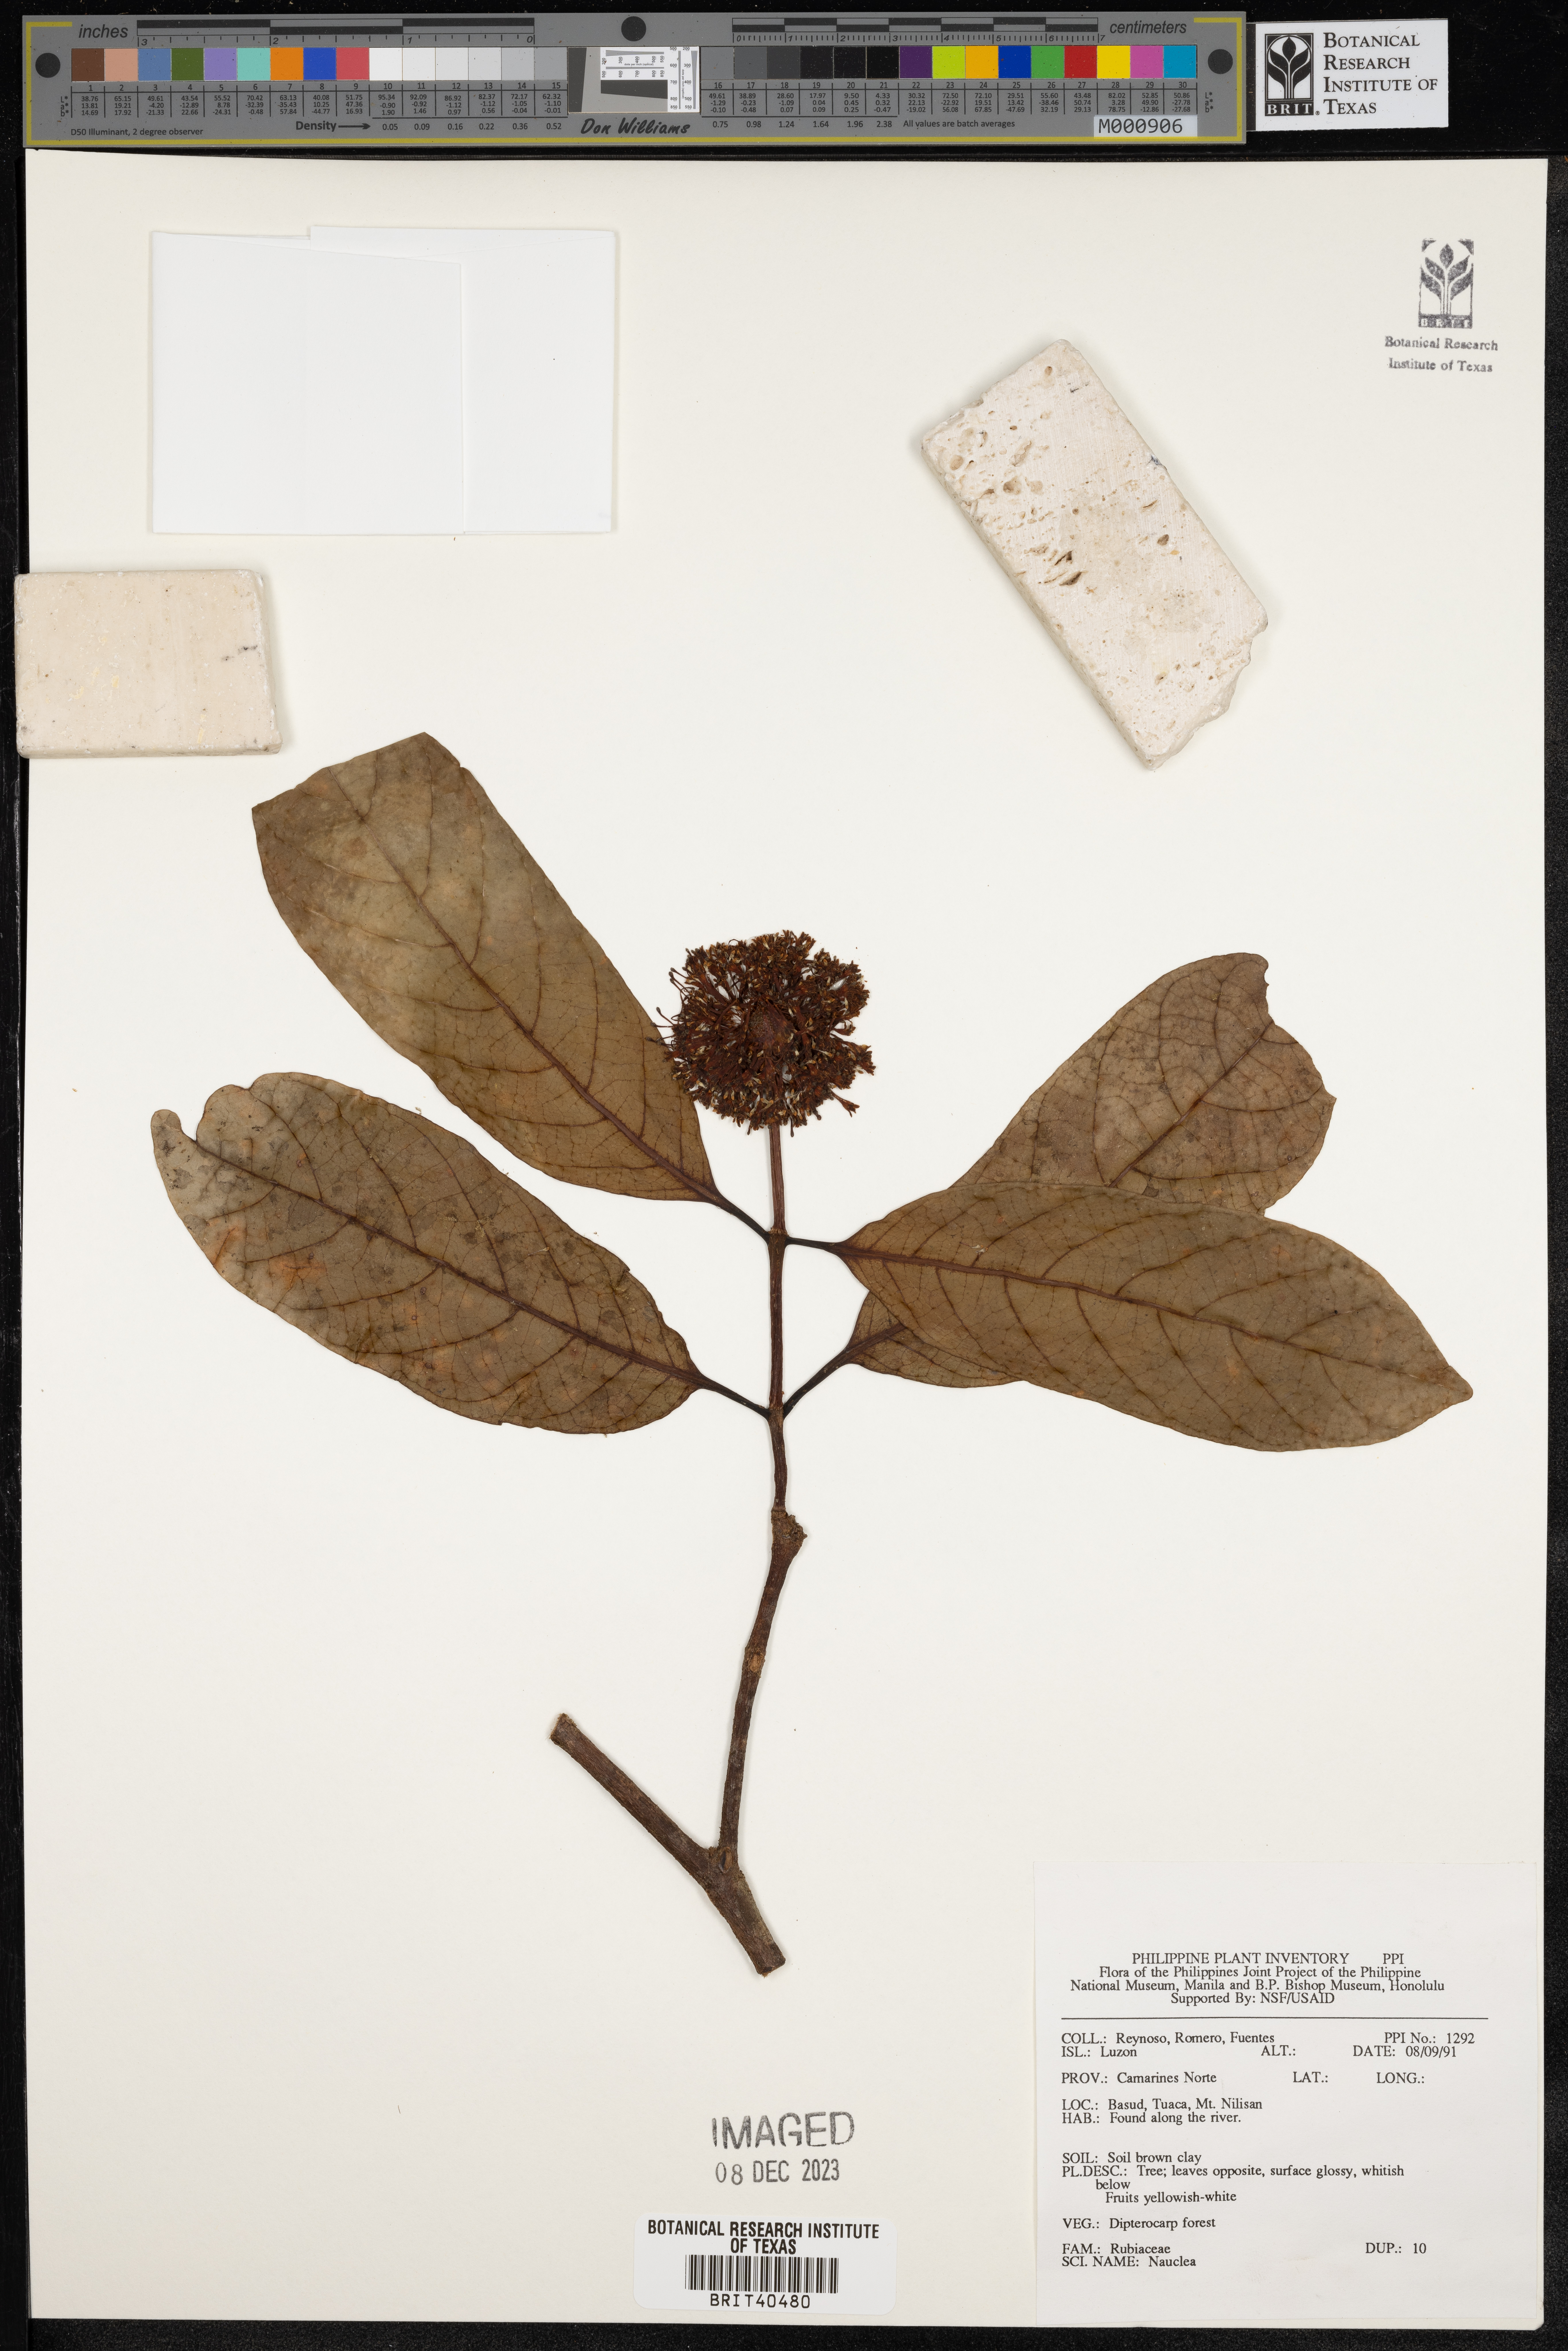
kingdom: Plantae
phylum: Tracheophyta
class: Magnoliopsida
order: Gentianales
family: Rubiaceae
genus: Nauclea
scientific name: Nauclea
